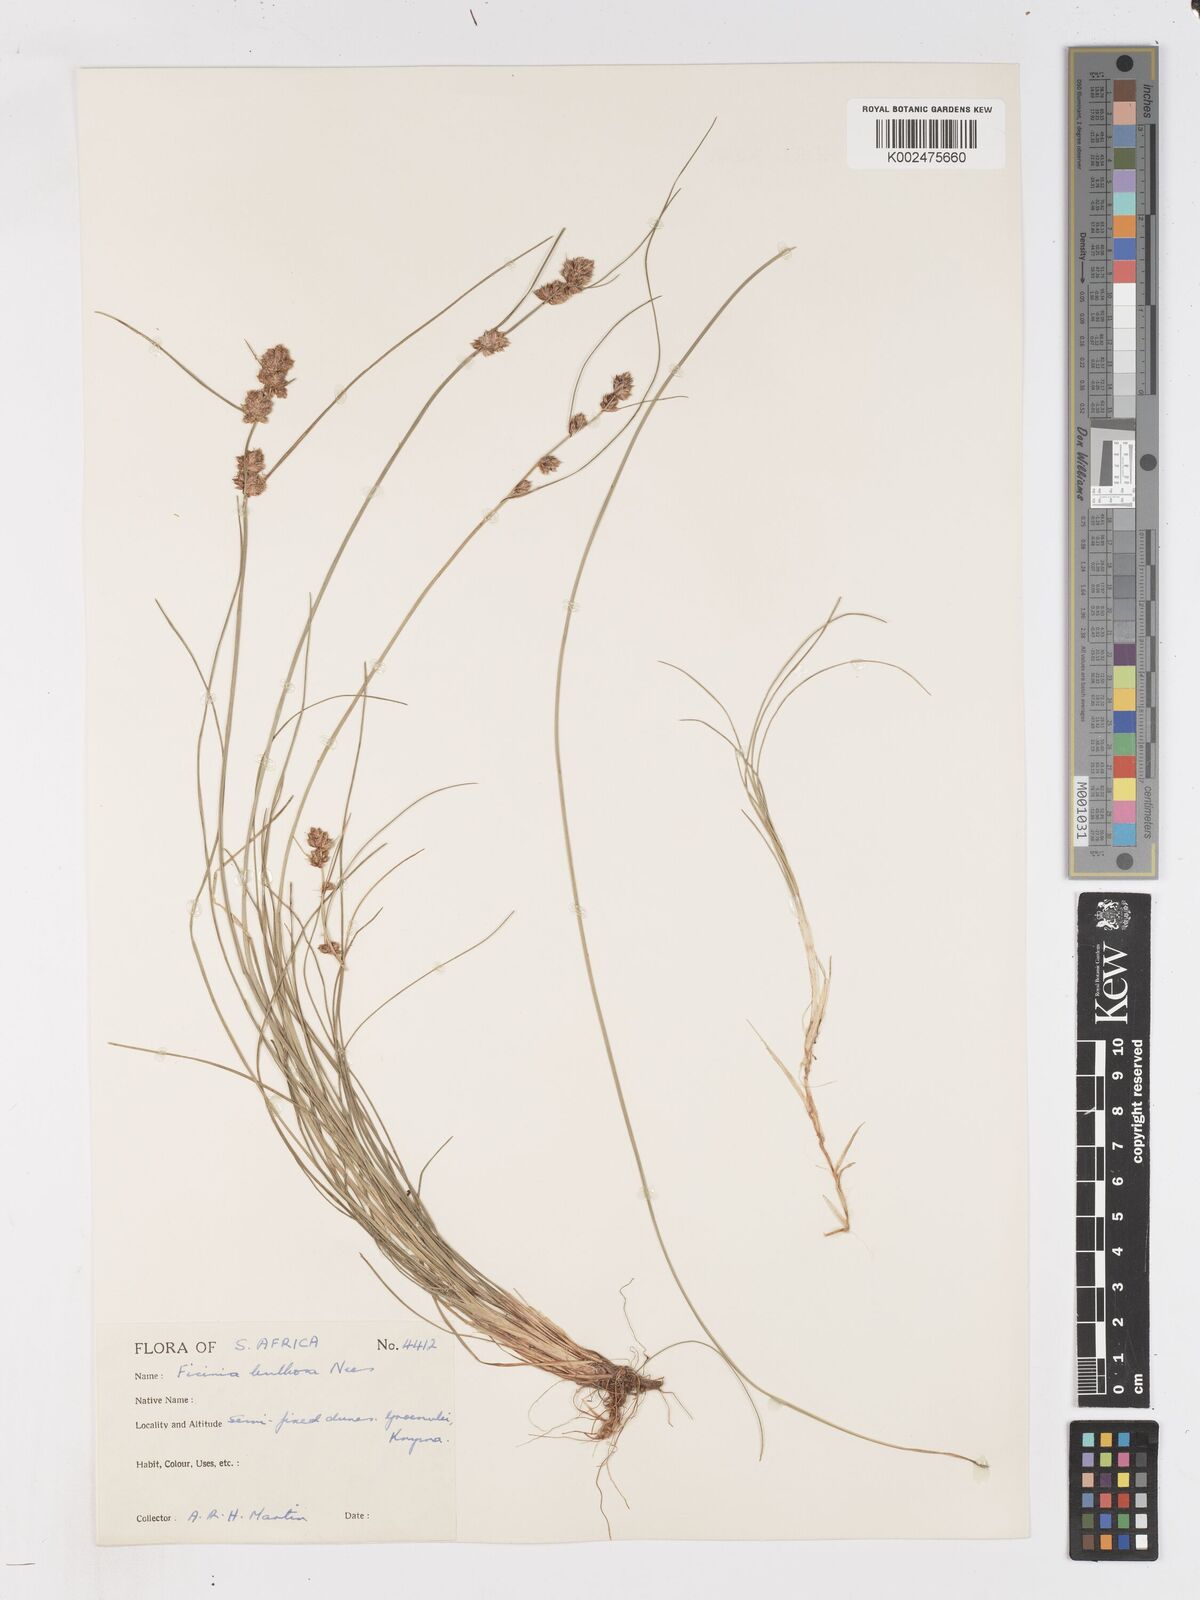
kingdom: Plantae
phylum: Tracheophyta
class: Liliopsida
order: Poales
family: Cyperaceae
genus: Ficinia
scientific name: Ficinia bulbosa
